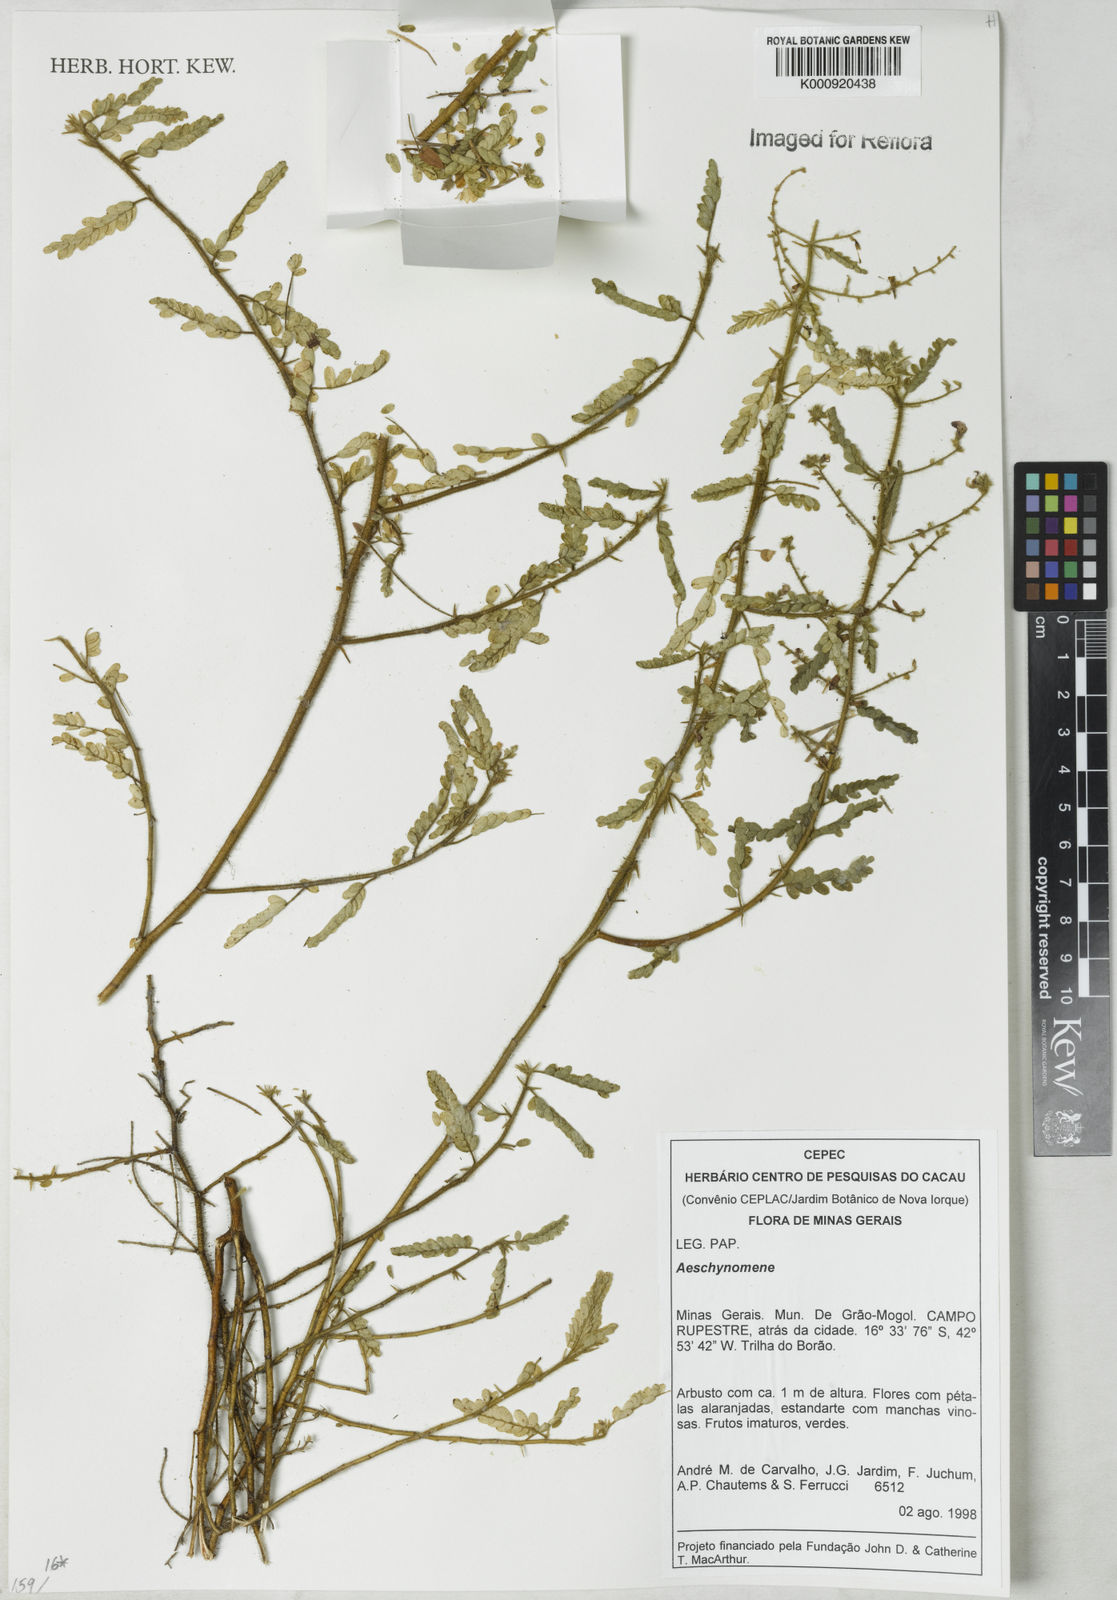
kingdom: Plantae
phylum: Tracheophyta
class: Magnoliopsida
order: Fabales
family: Fabaceae
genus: Aeschynomene
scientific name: Aeschynomene
